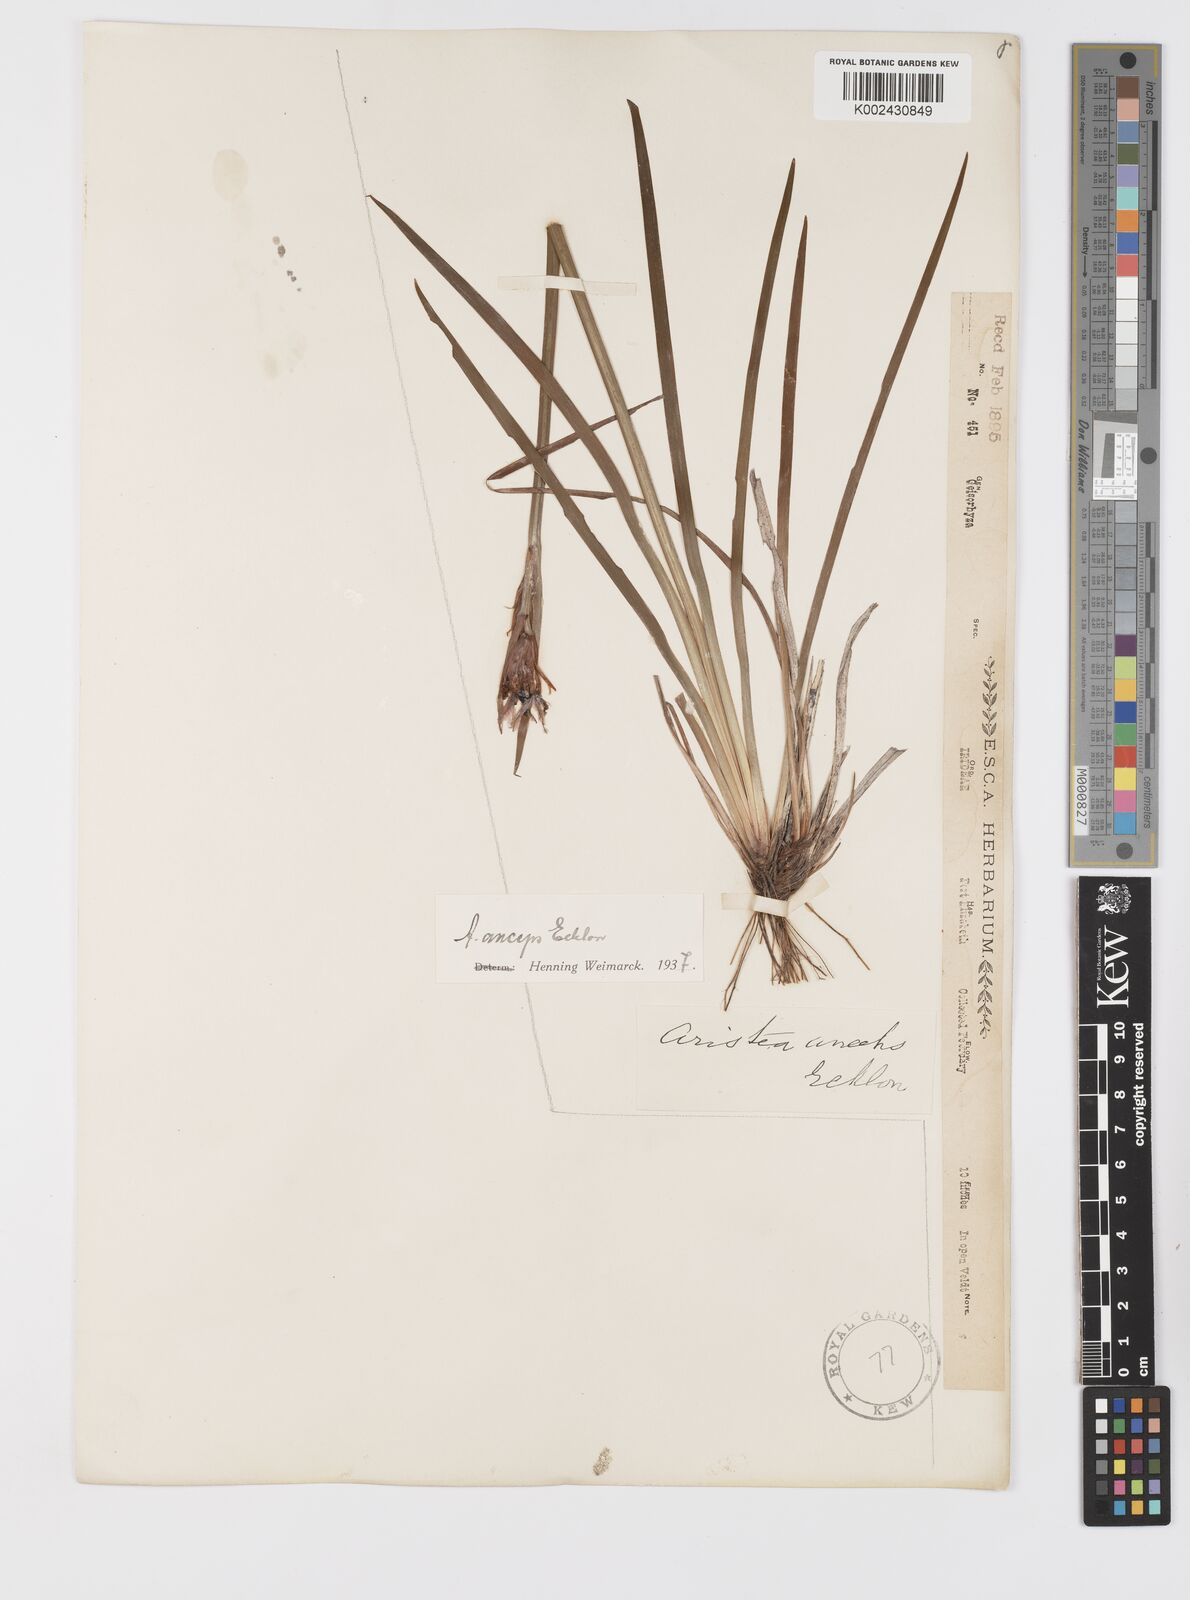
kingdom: Plantae
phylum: Tracheophyta
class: Liliopsida
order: Asparagales
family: Iridaceae
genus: Aristea
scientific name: Aristea anceps
